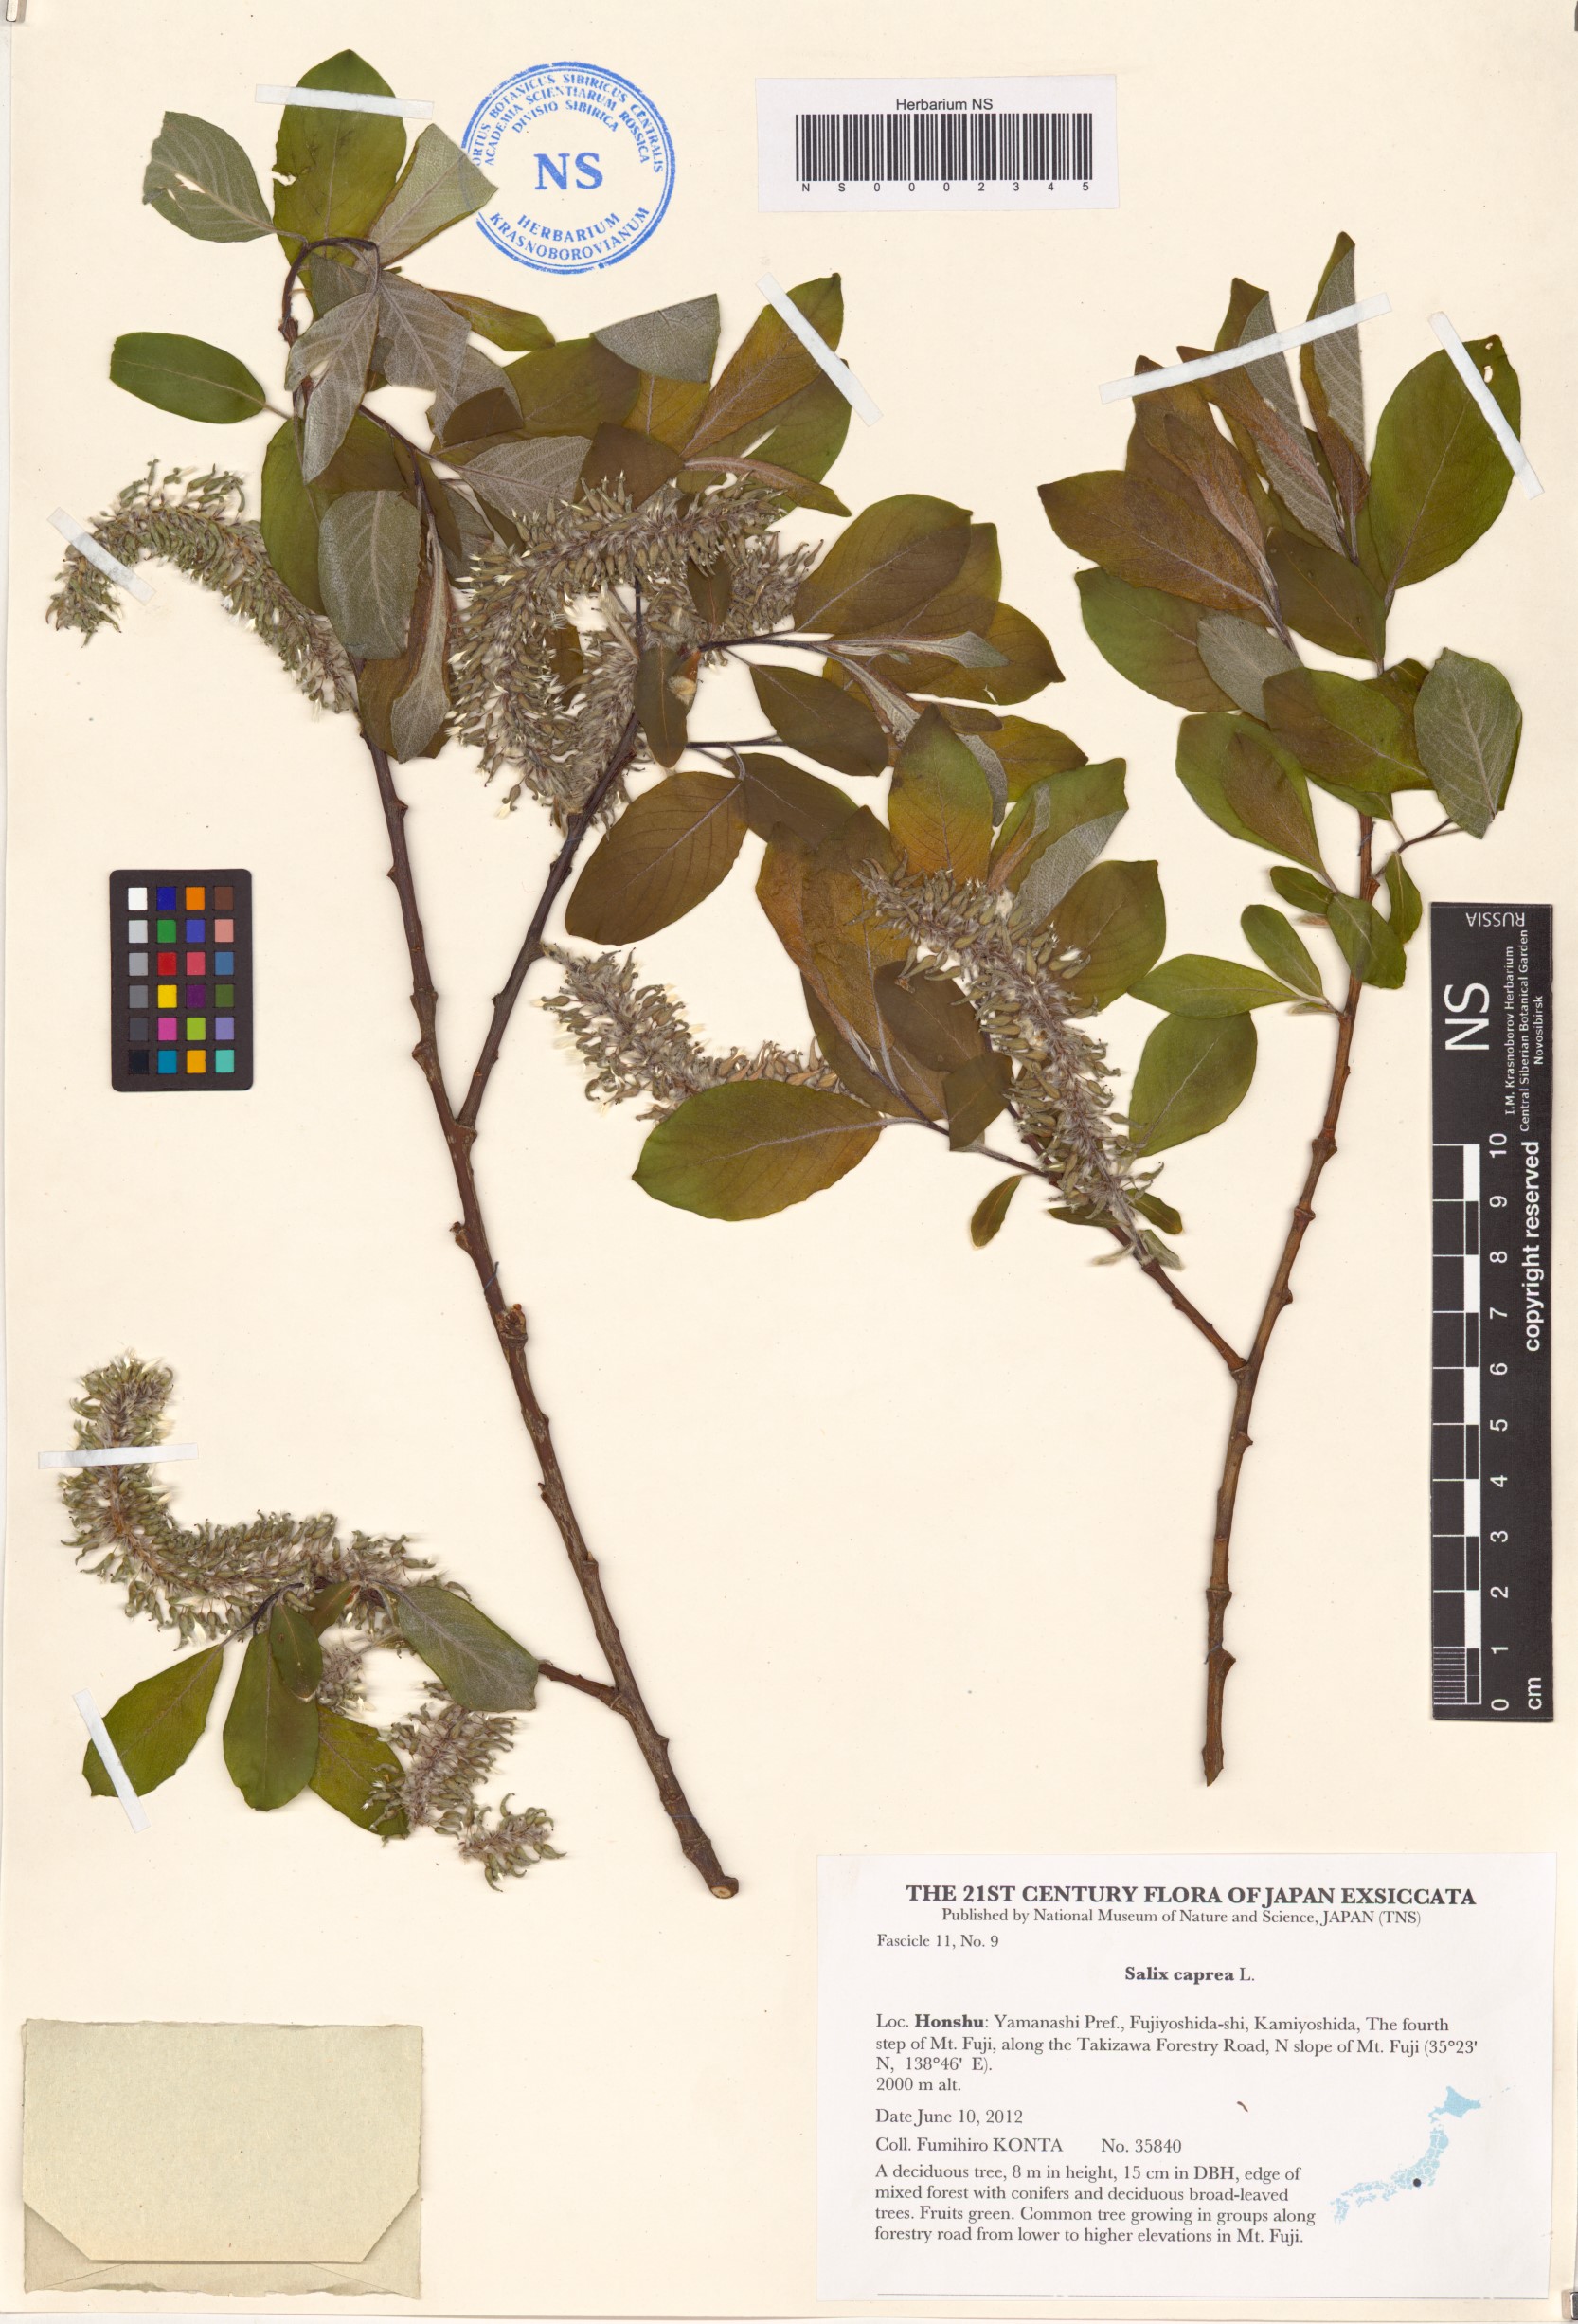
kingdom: Plantae
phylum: Tracheophyta
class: Magnoliopsida
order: Malpighiales
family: Salicaceae
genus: Salix
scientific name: Salix caprea
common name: Goat willow
